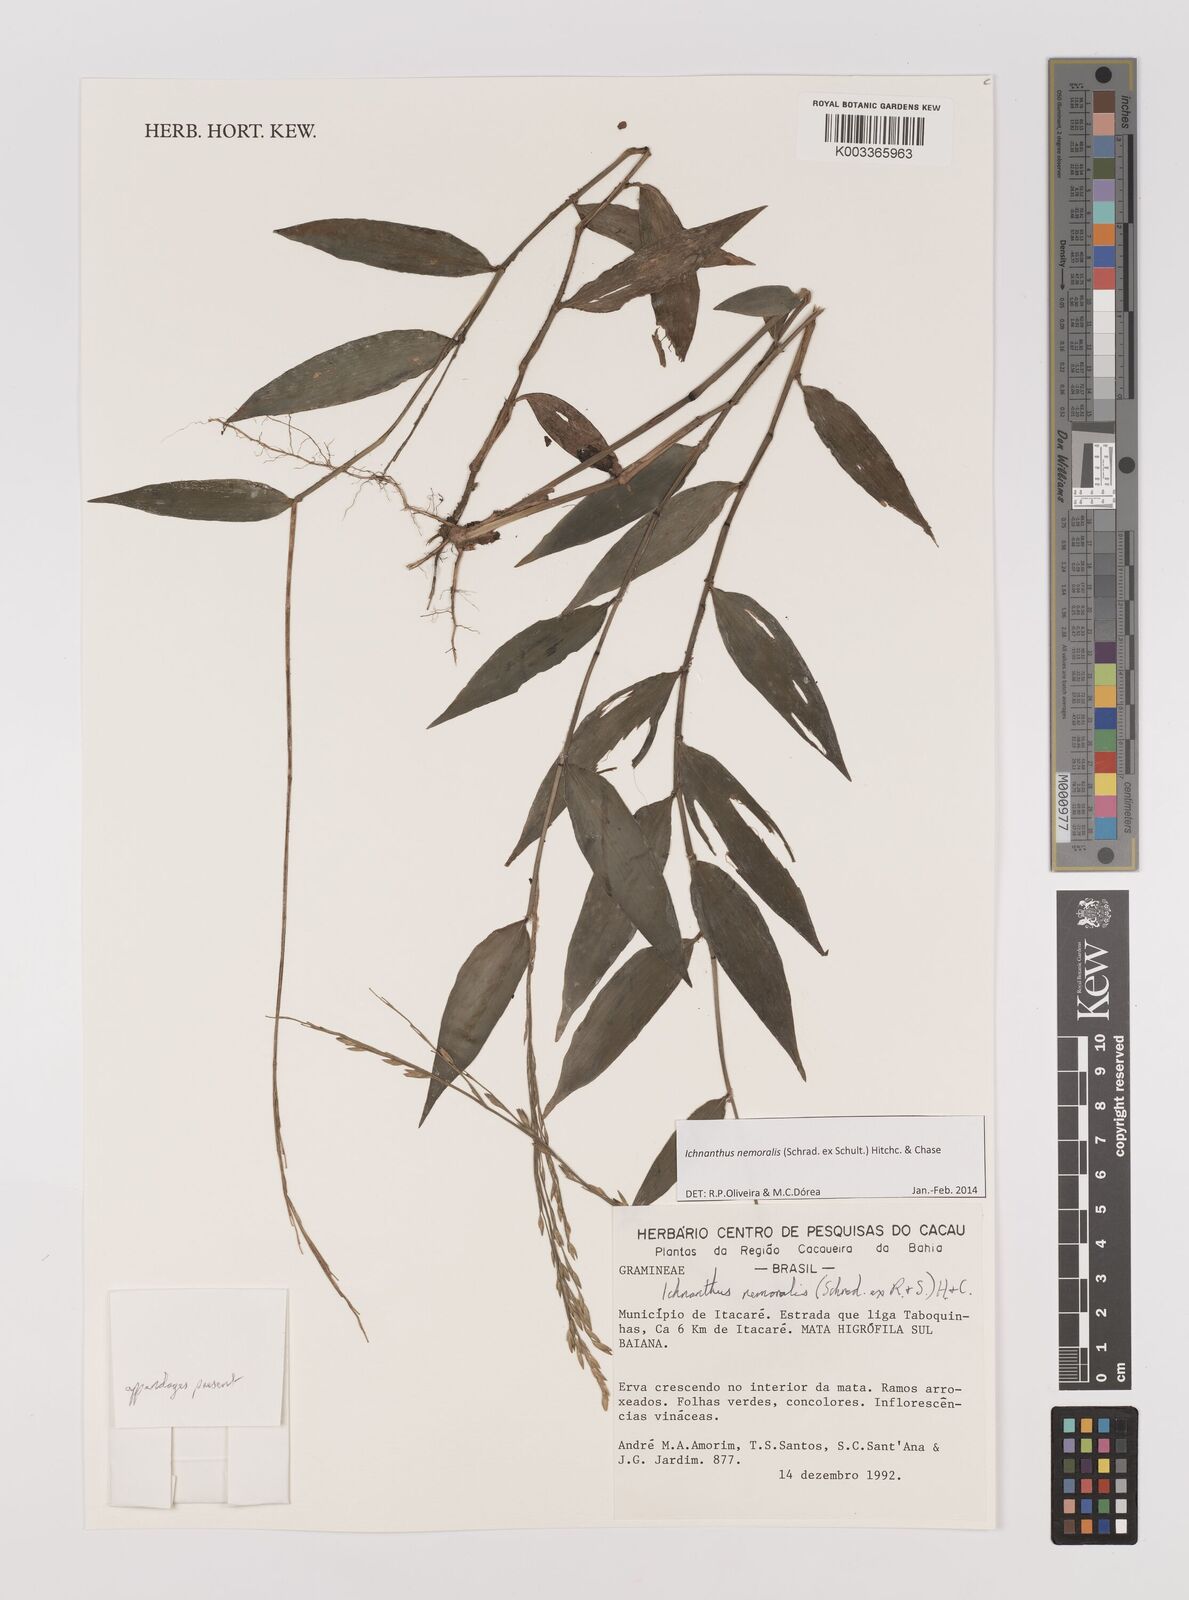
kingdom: Plantae
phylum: Tracheophyta
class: Liliopsida
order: Poales
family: Poaceae
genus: Ichnanthus
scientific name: Ichnanthus nemoralis
